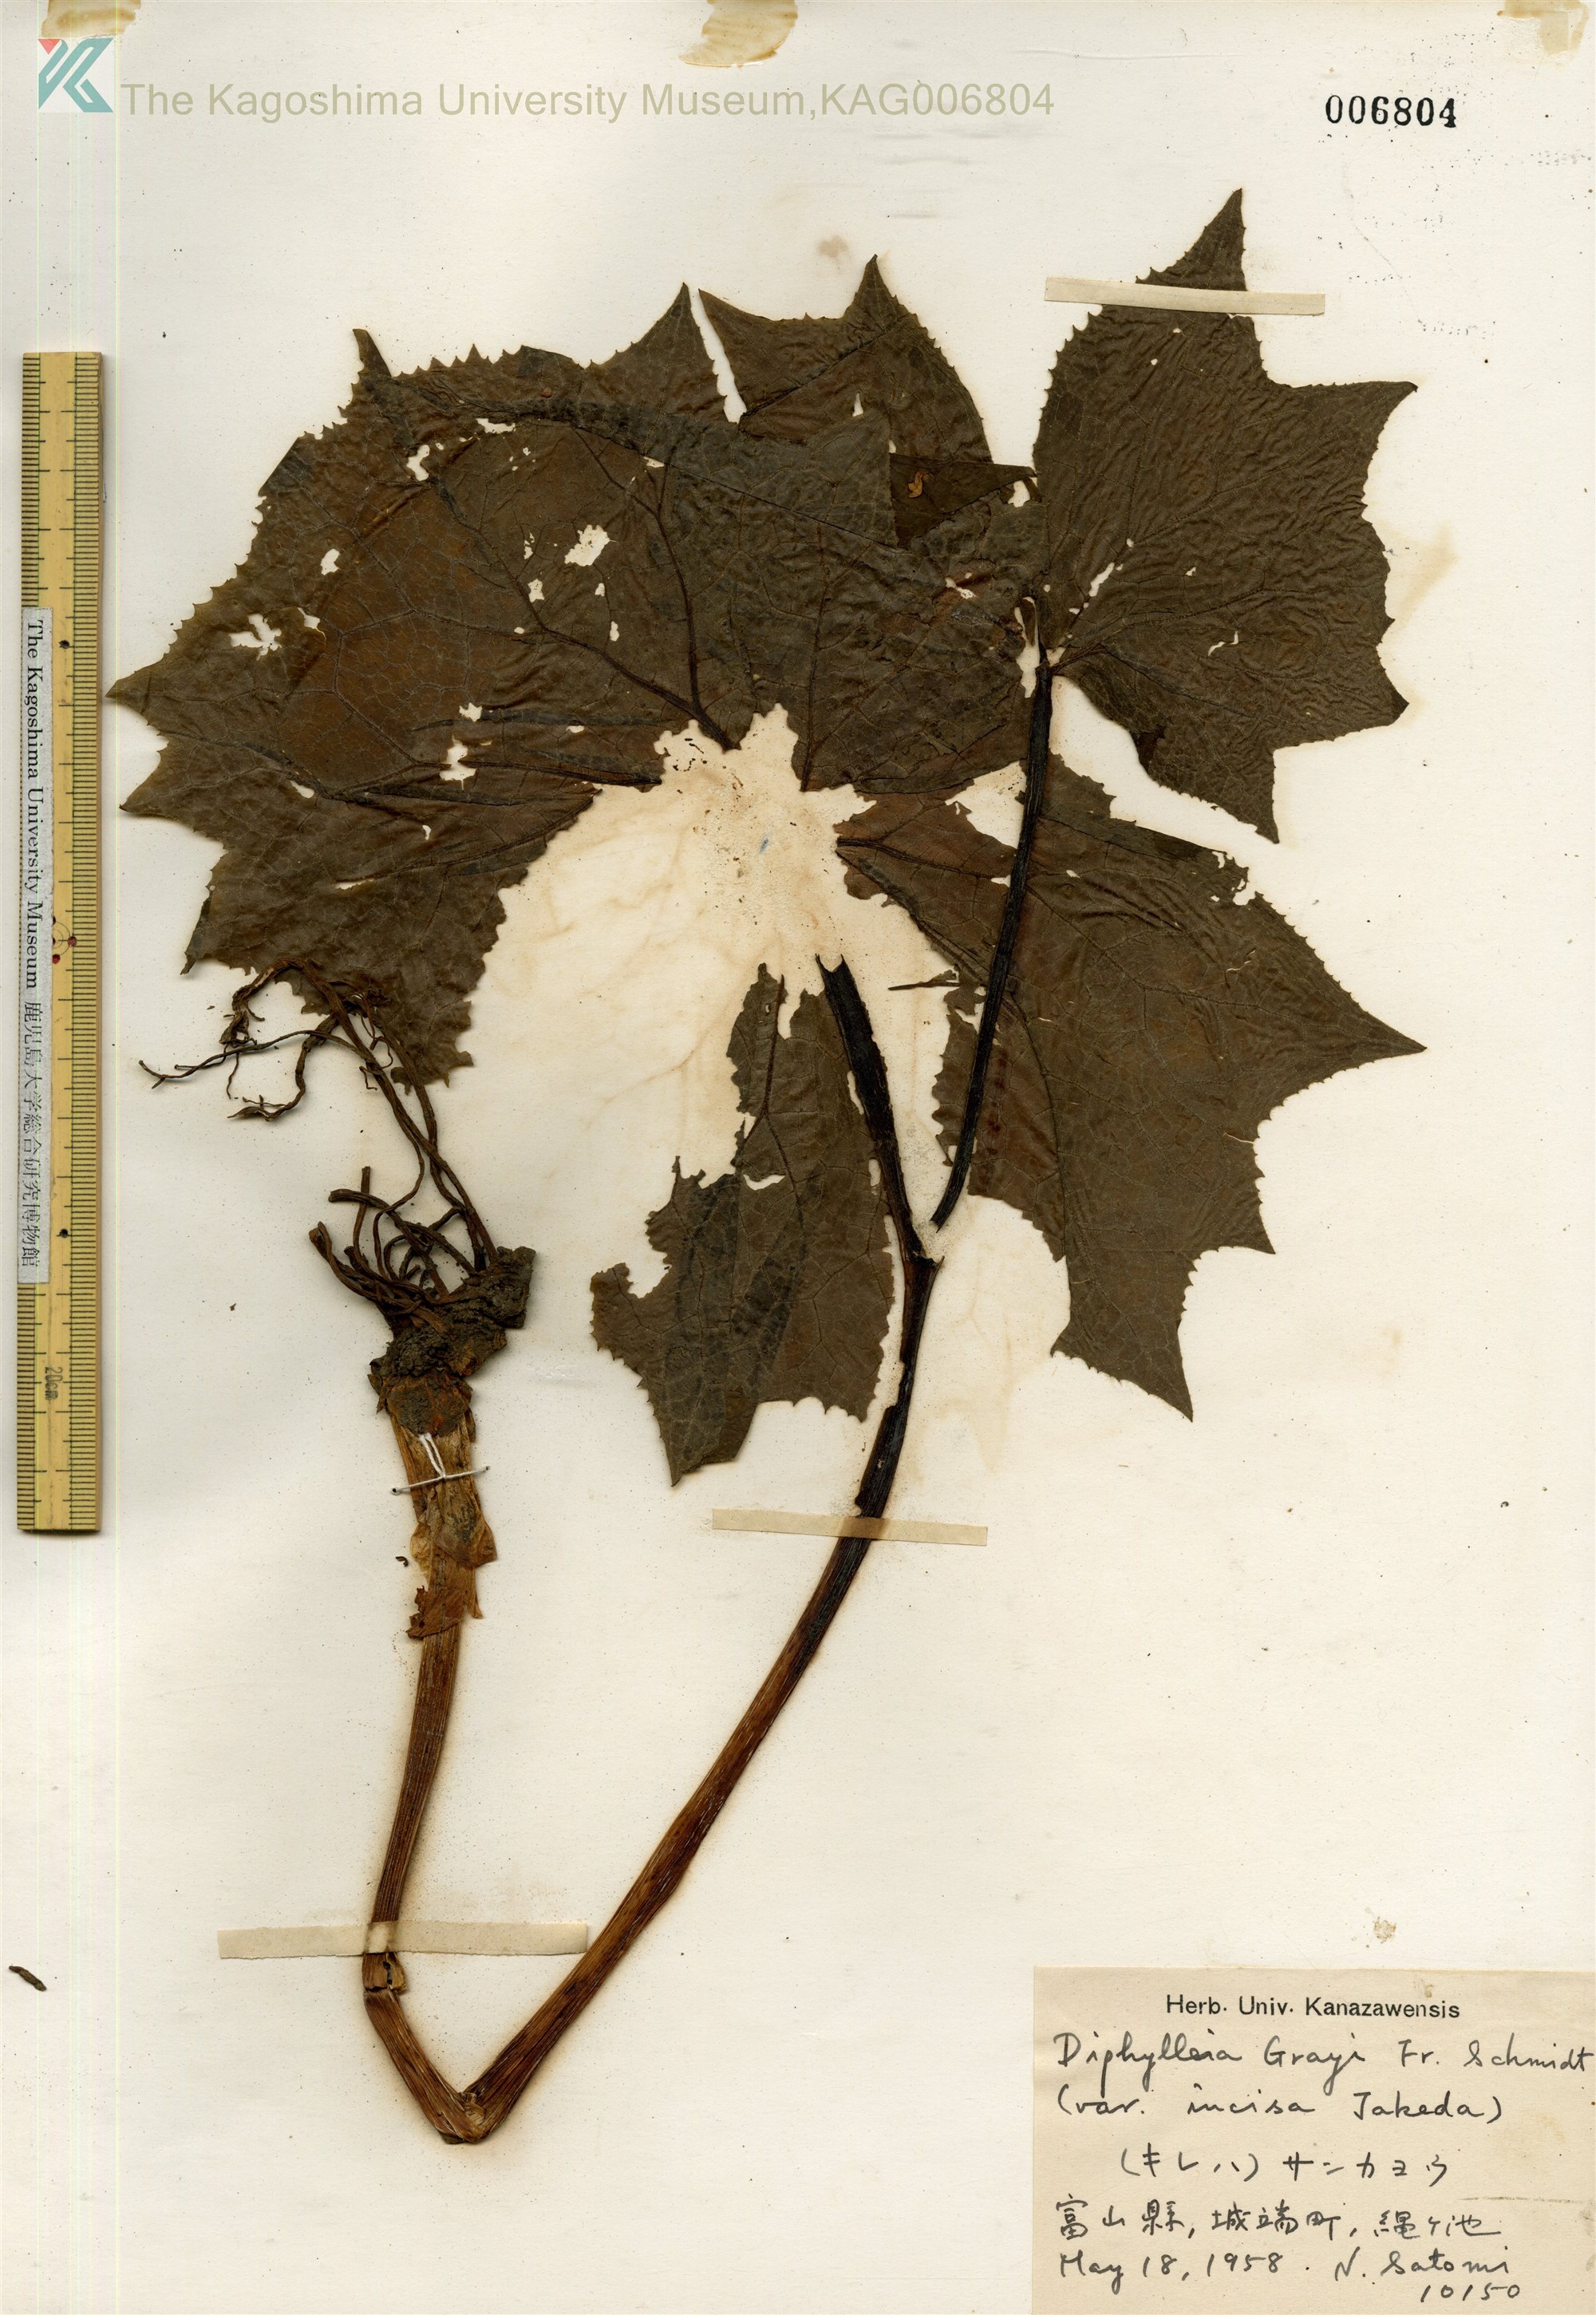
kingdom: Plantae
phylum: Tracheophyta
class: Magnoliopsida
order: Ranunculales
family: Berberidaceae
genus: Diphylleia
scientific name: Diphylleia grayi
